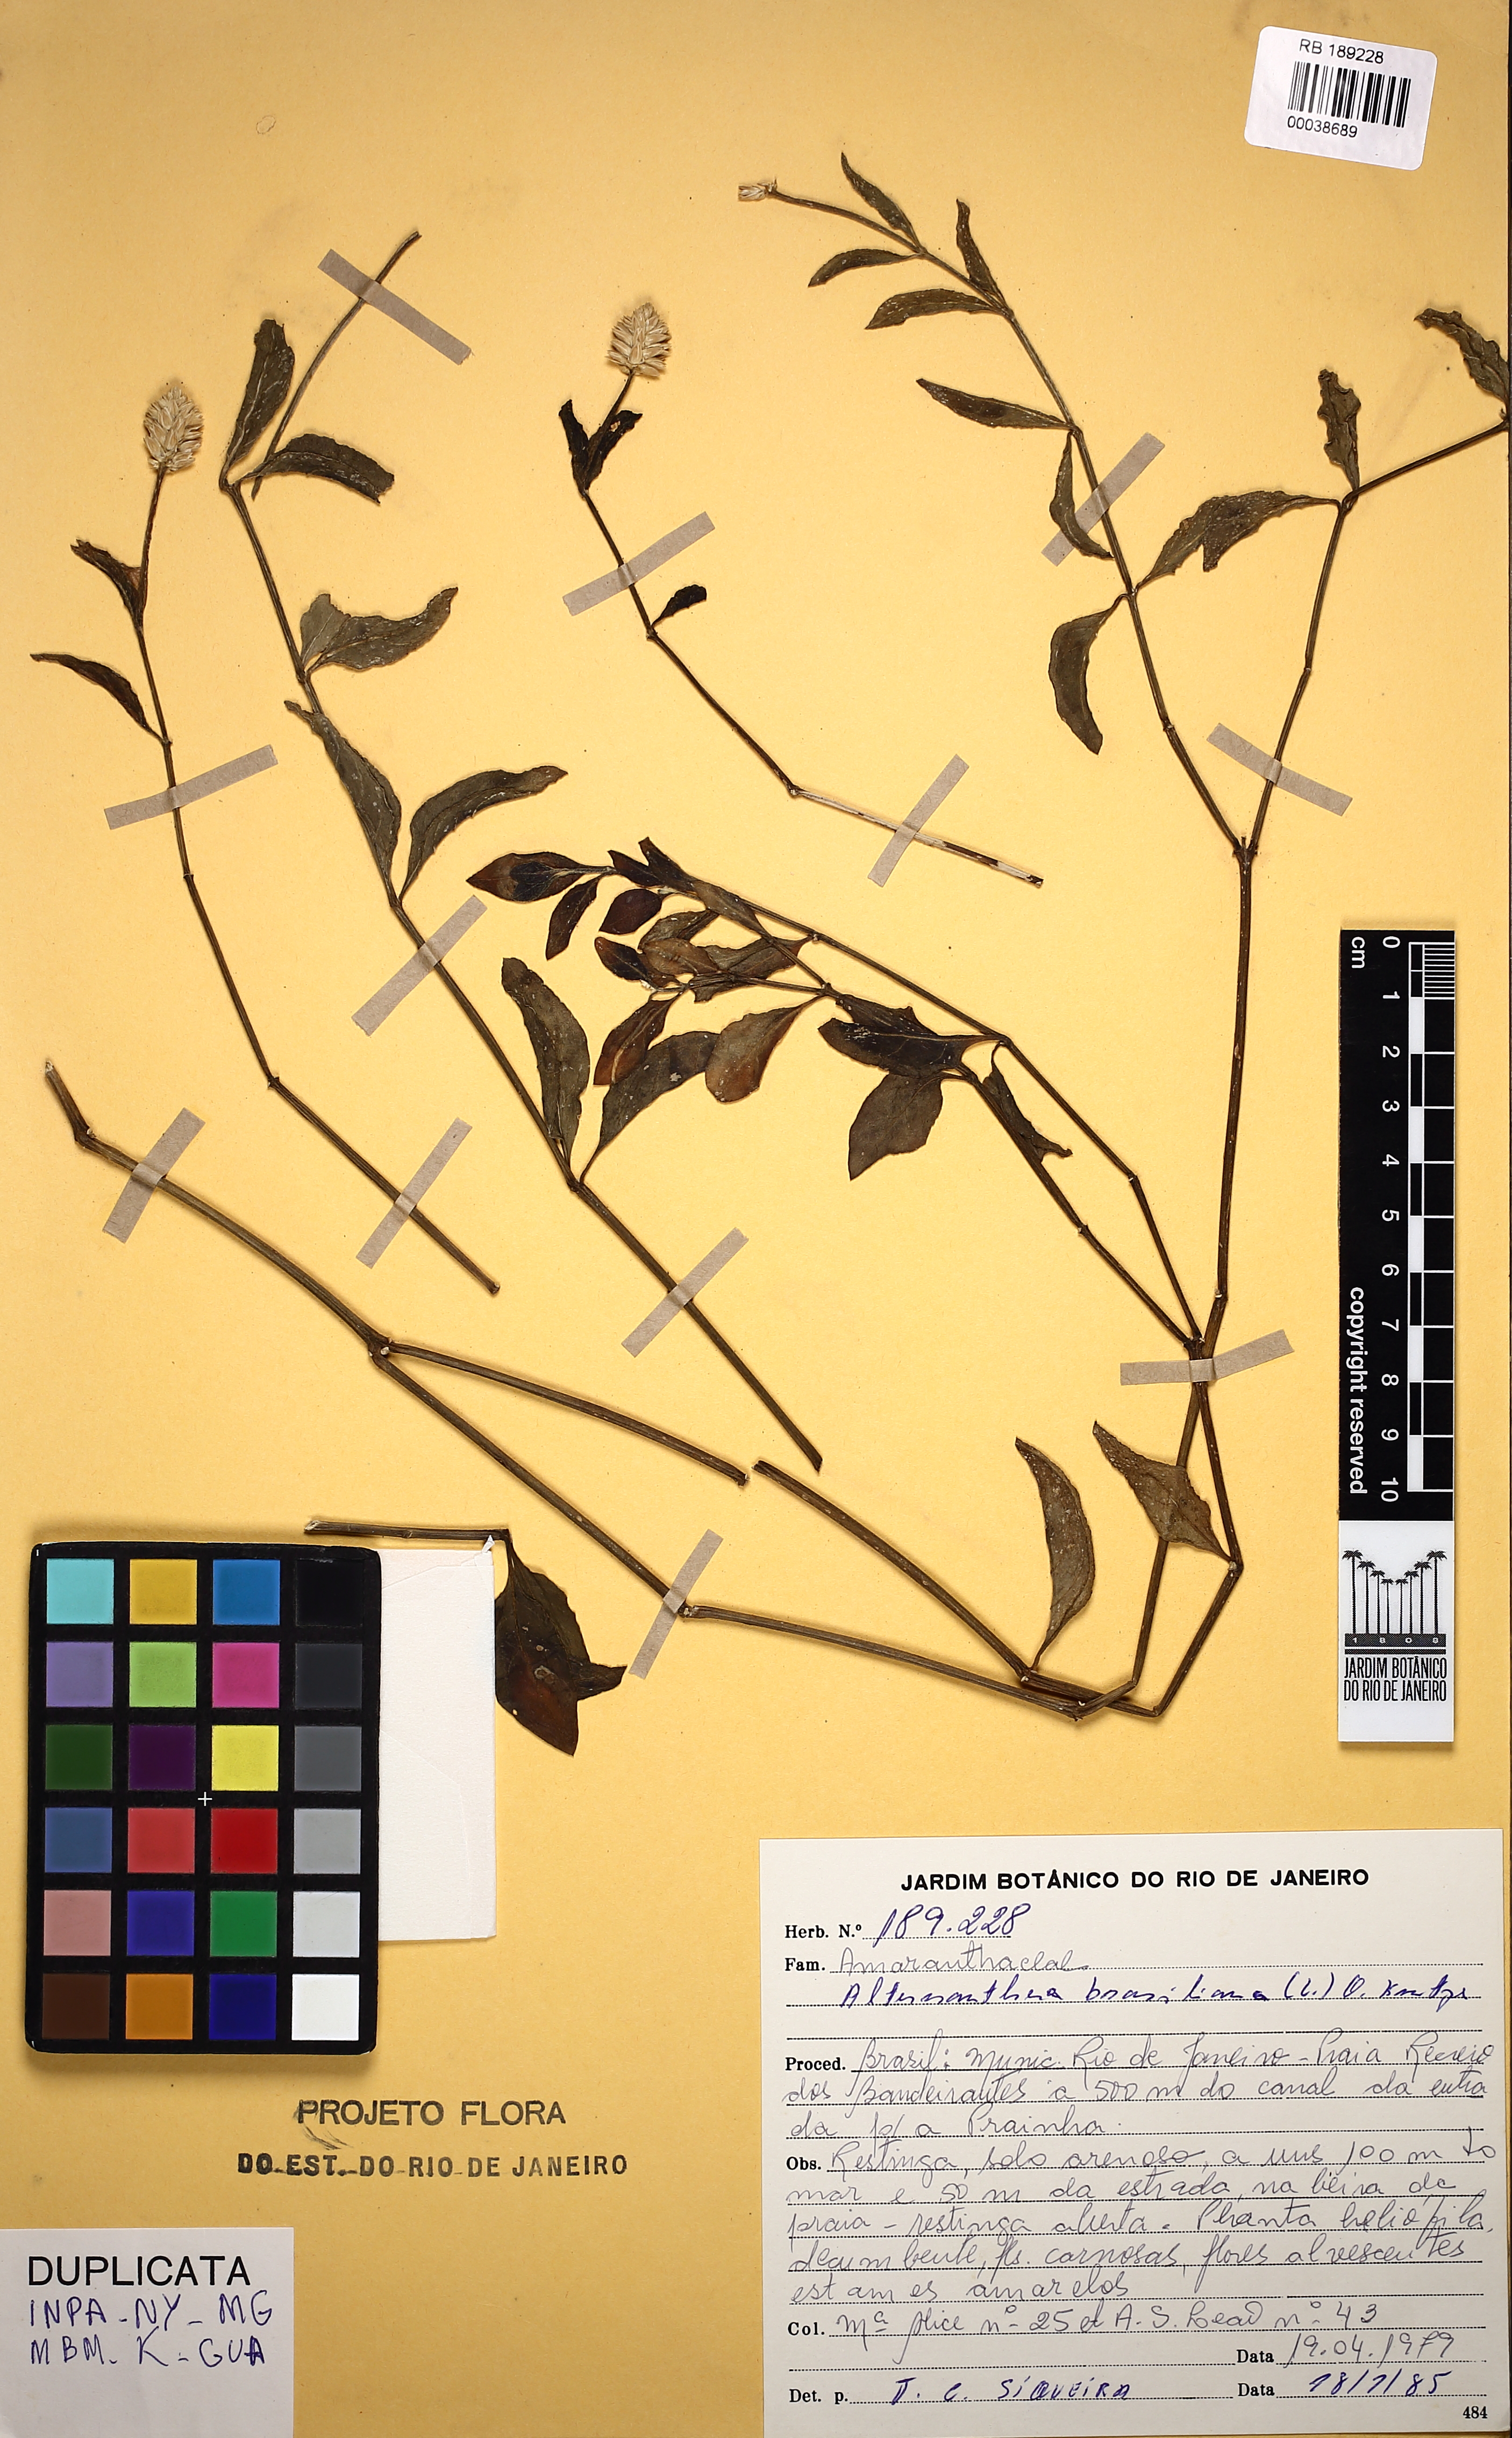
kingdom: Plantae
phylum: Tracheophyta
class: Magnoliopsida
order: Caryophyllales
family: Amaranthaceae
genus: Alternanthera
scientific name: Alternanthera praelonga
